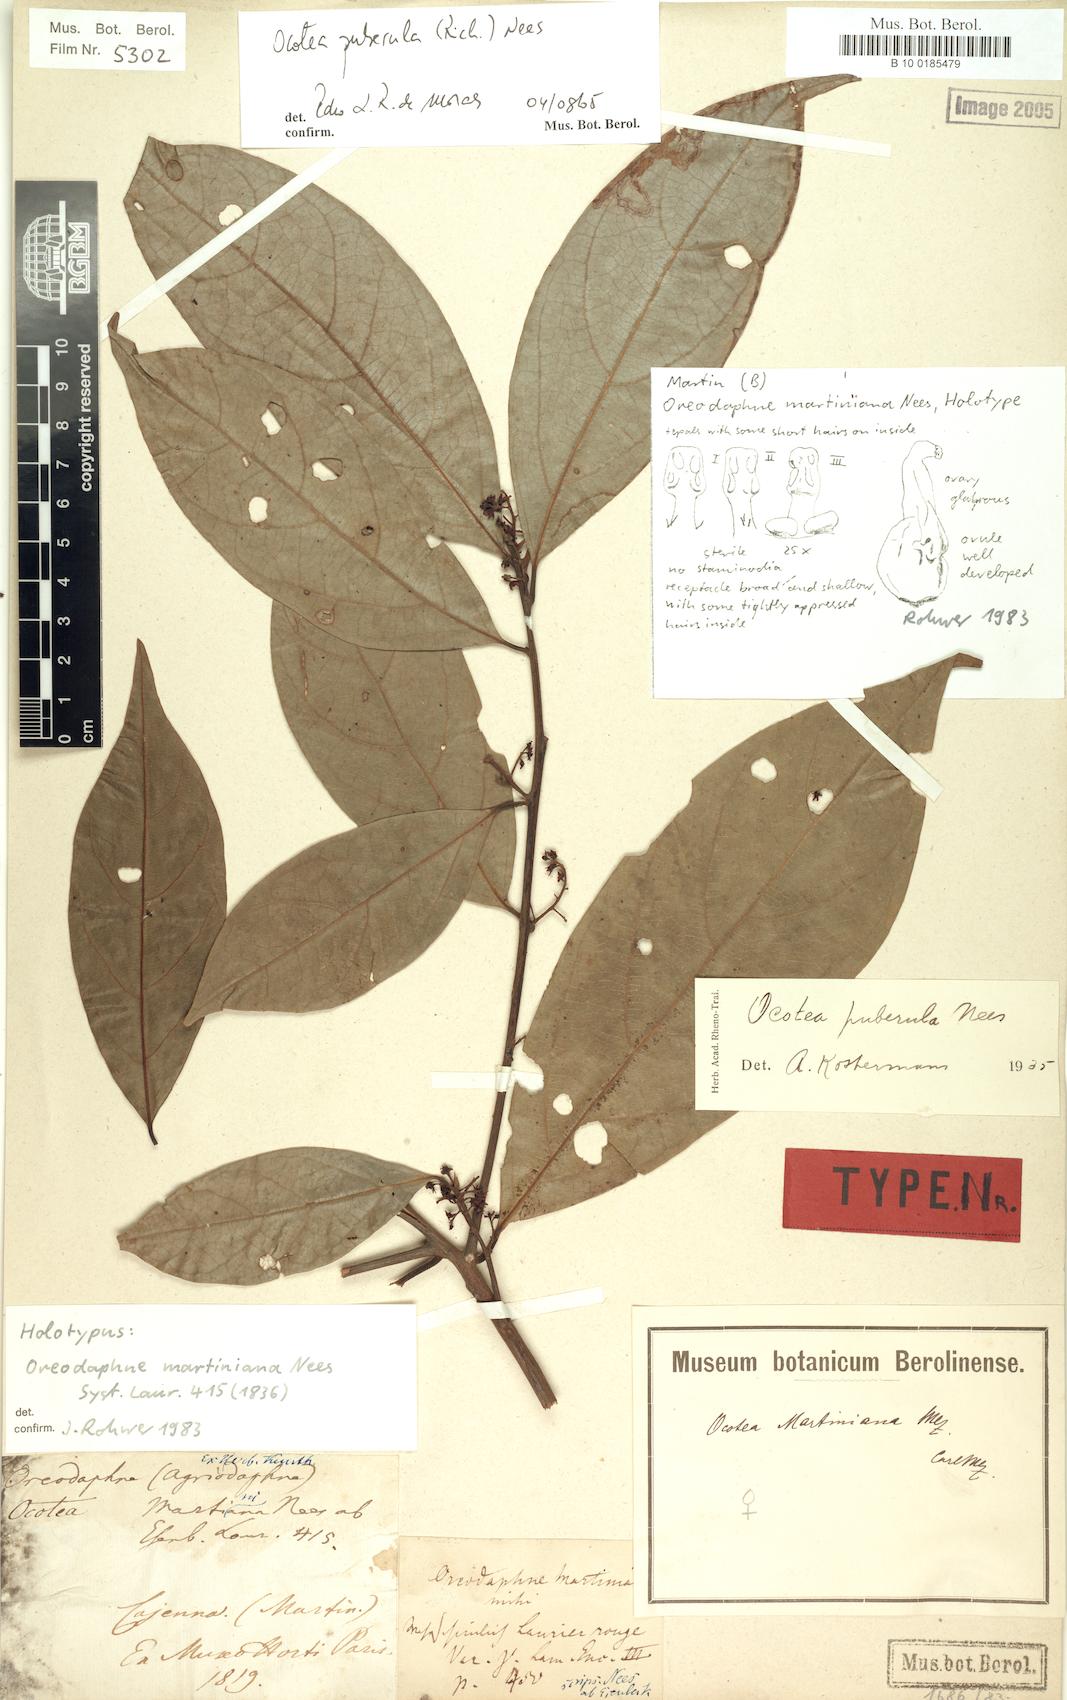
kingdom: Plantae
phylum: Tracheophyta
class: Magnoliopsida
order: Laurales
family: Lauraceae
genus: Ocotea
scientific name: Ocotea puberula
